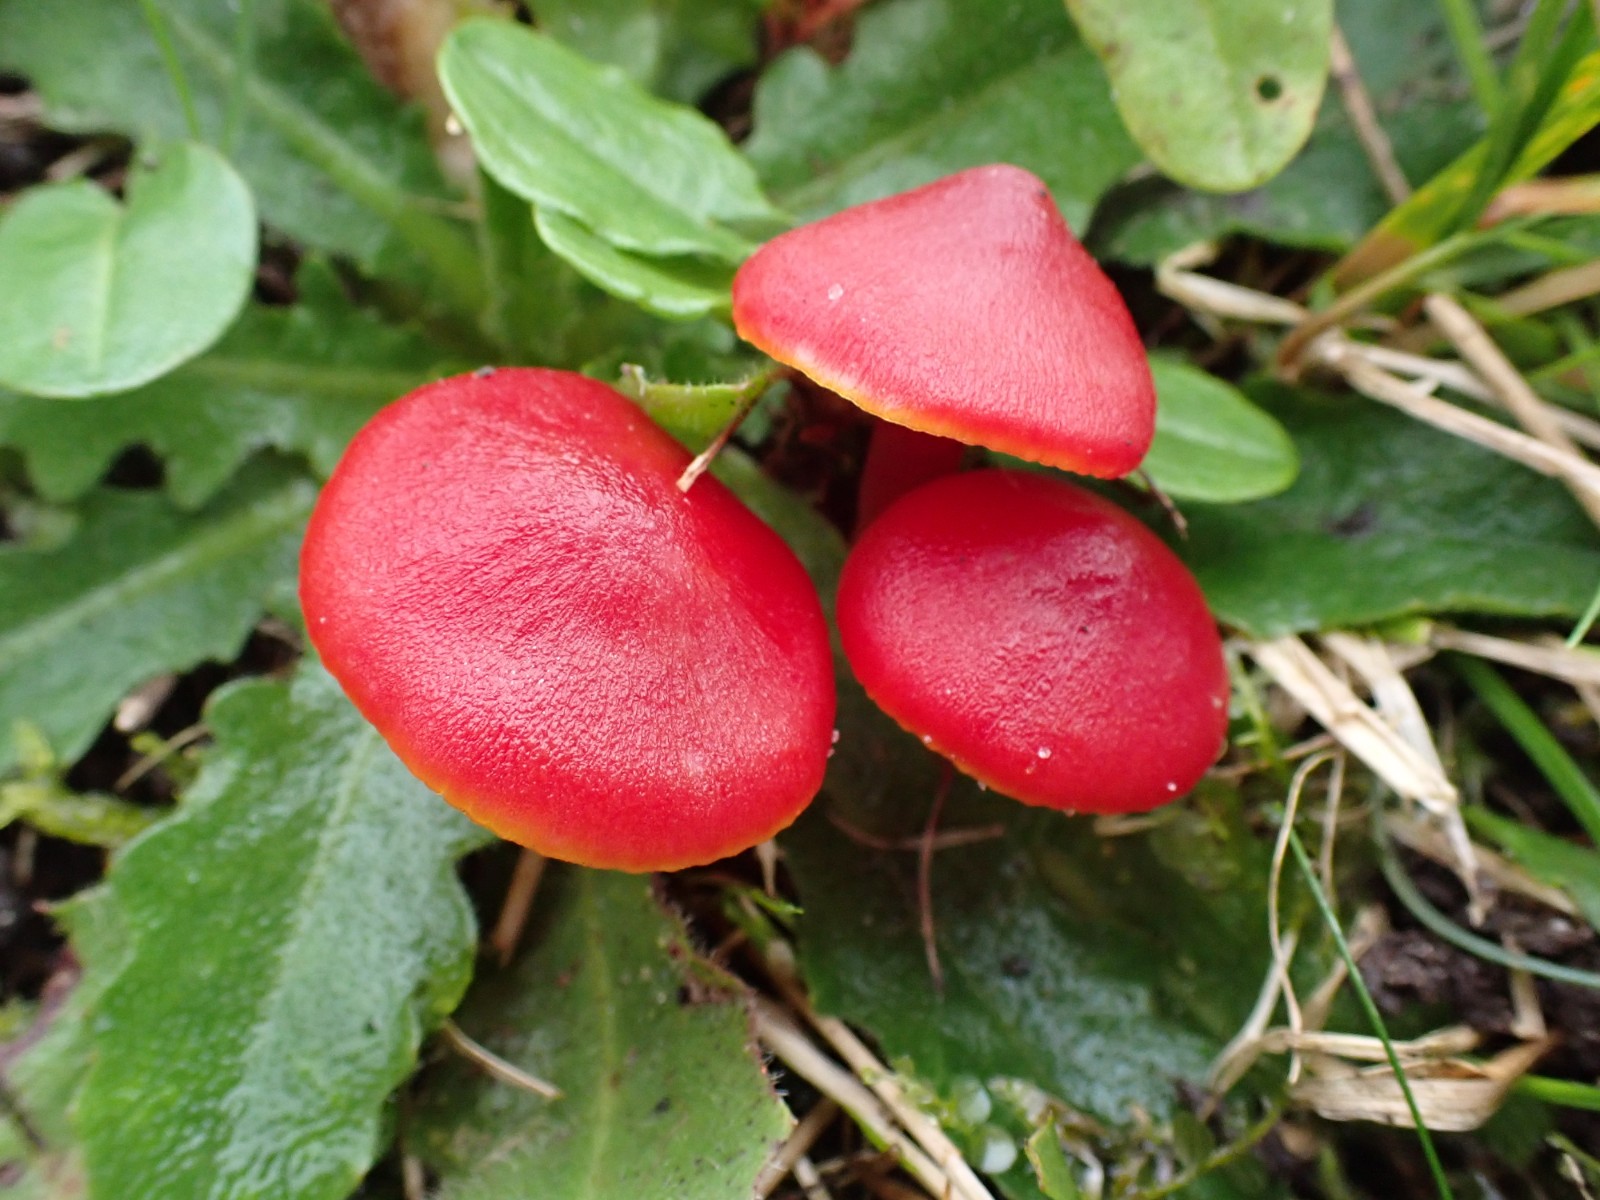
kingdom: Fungi
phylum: Basidiomycota
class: Agaricomycetes
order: Agaricales
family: Hygrophoraceae
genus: Hygrocybe
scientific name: Hygrocybe coccinea
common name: cinnober-vokshat
